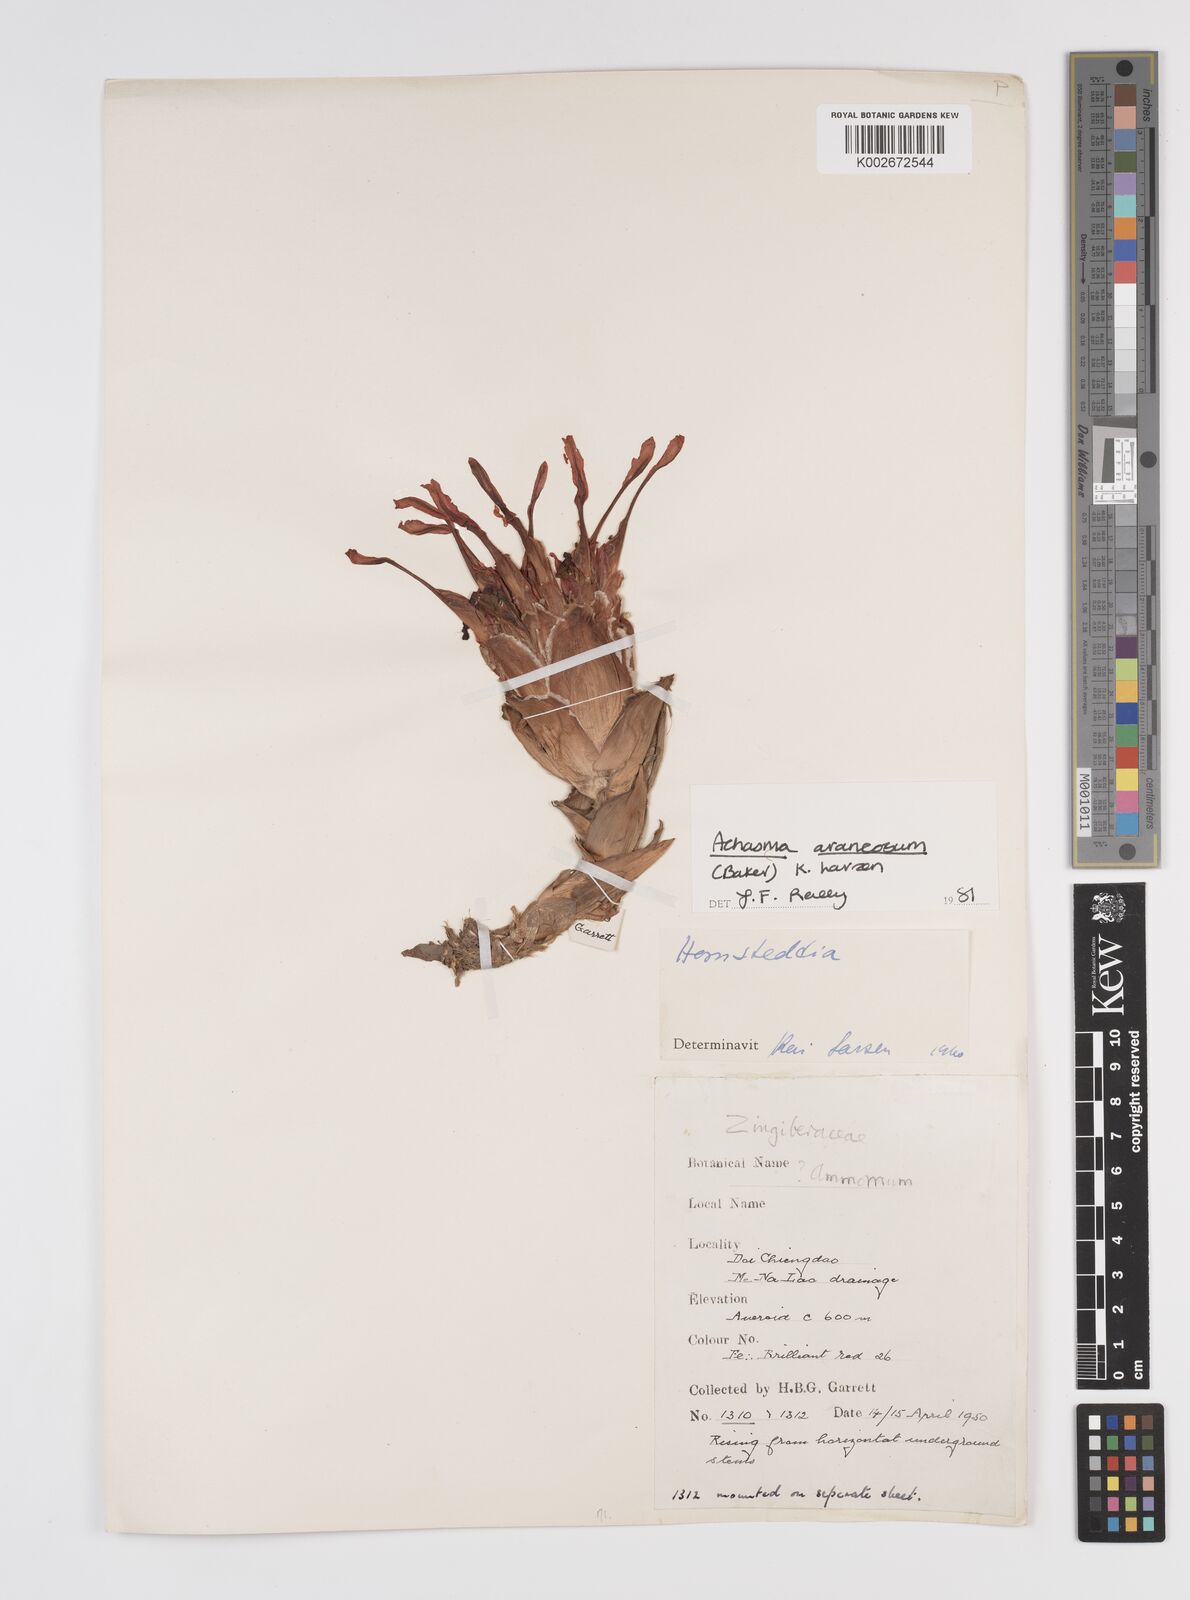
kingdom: Plantae
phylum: Tracheophyta
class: Liliopsida
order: Zingiberales
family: Zingiberaceae
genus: Etlingera
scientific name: Etlingera araneosa
